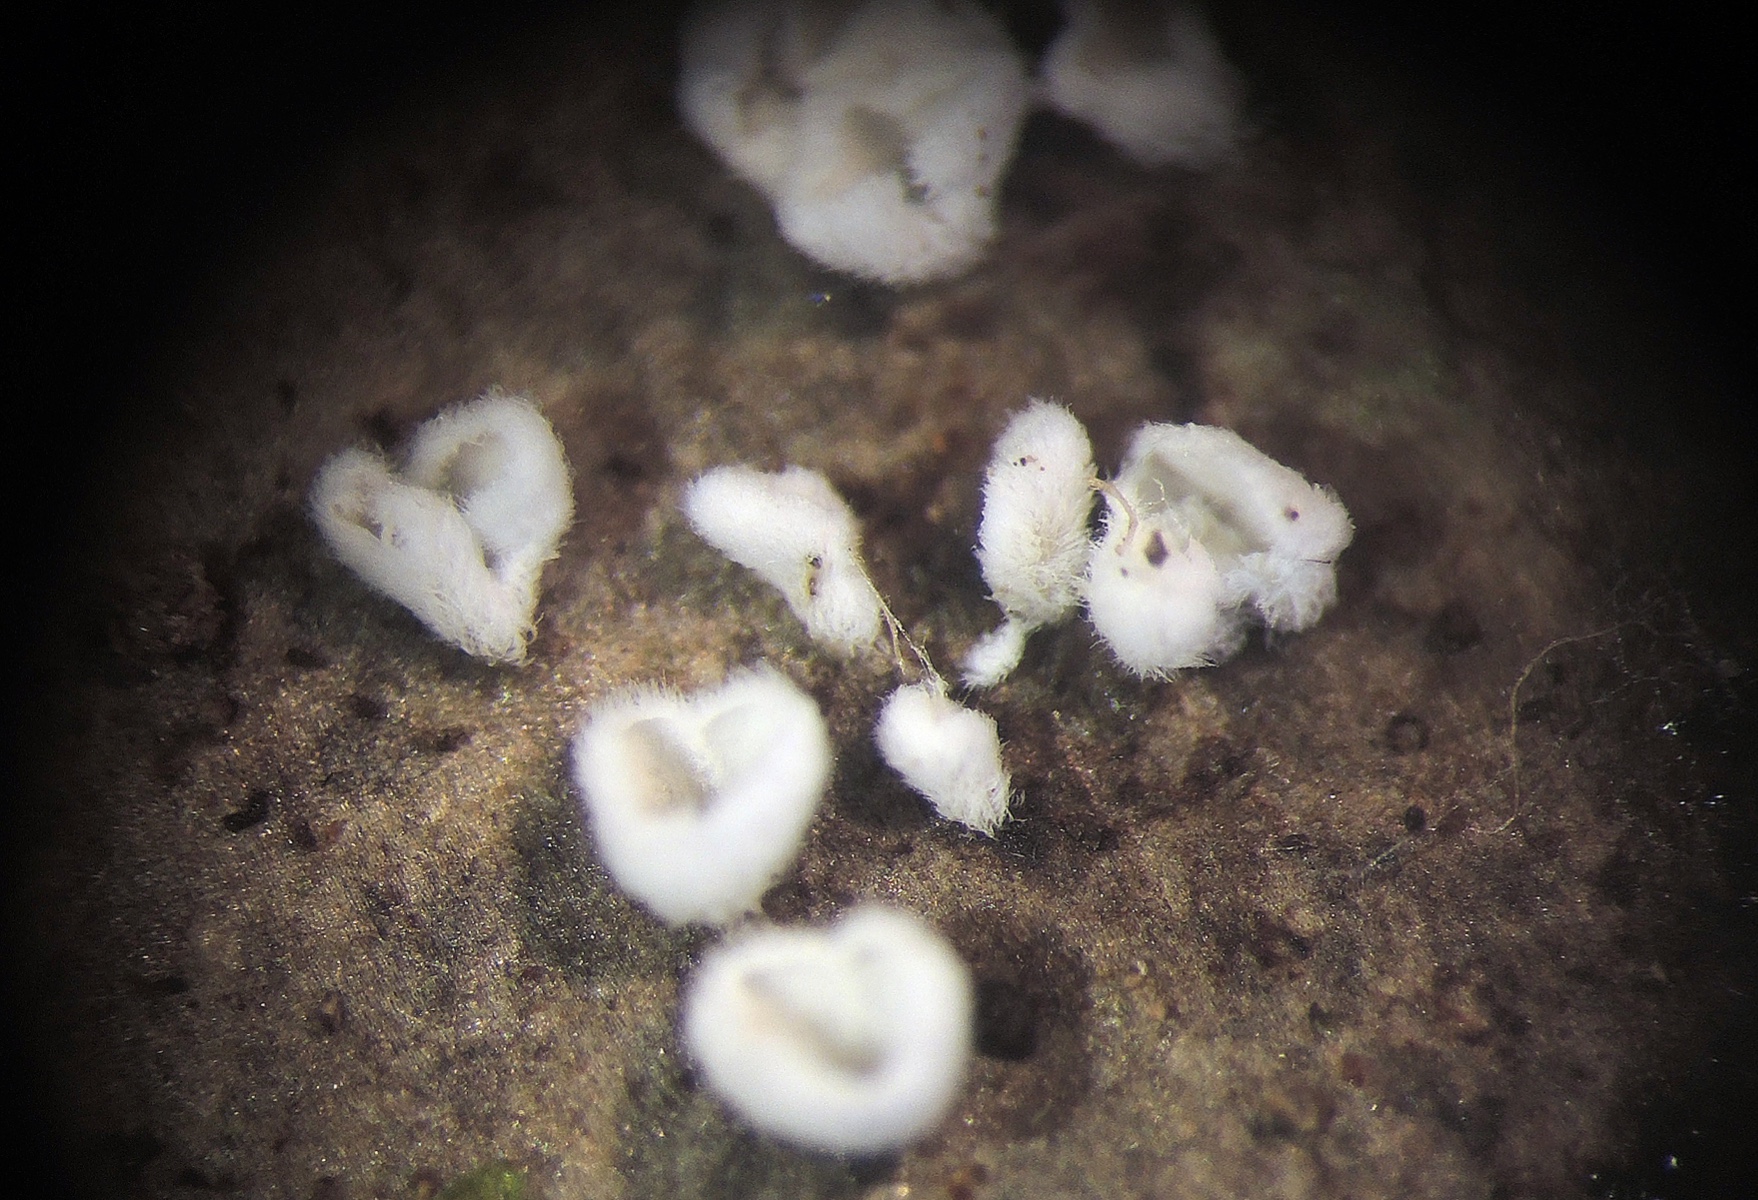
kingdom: Fungi
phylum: Basidiomycota
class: Agaricomycetes
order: Agaricales
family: Niaceae
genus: Flagelloscypha
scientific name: Flagelloscypha
